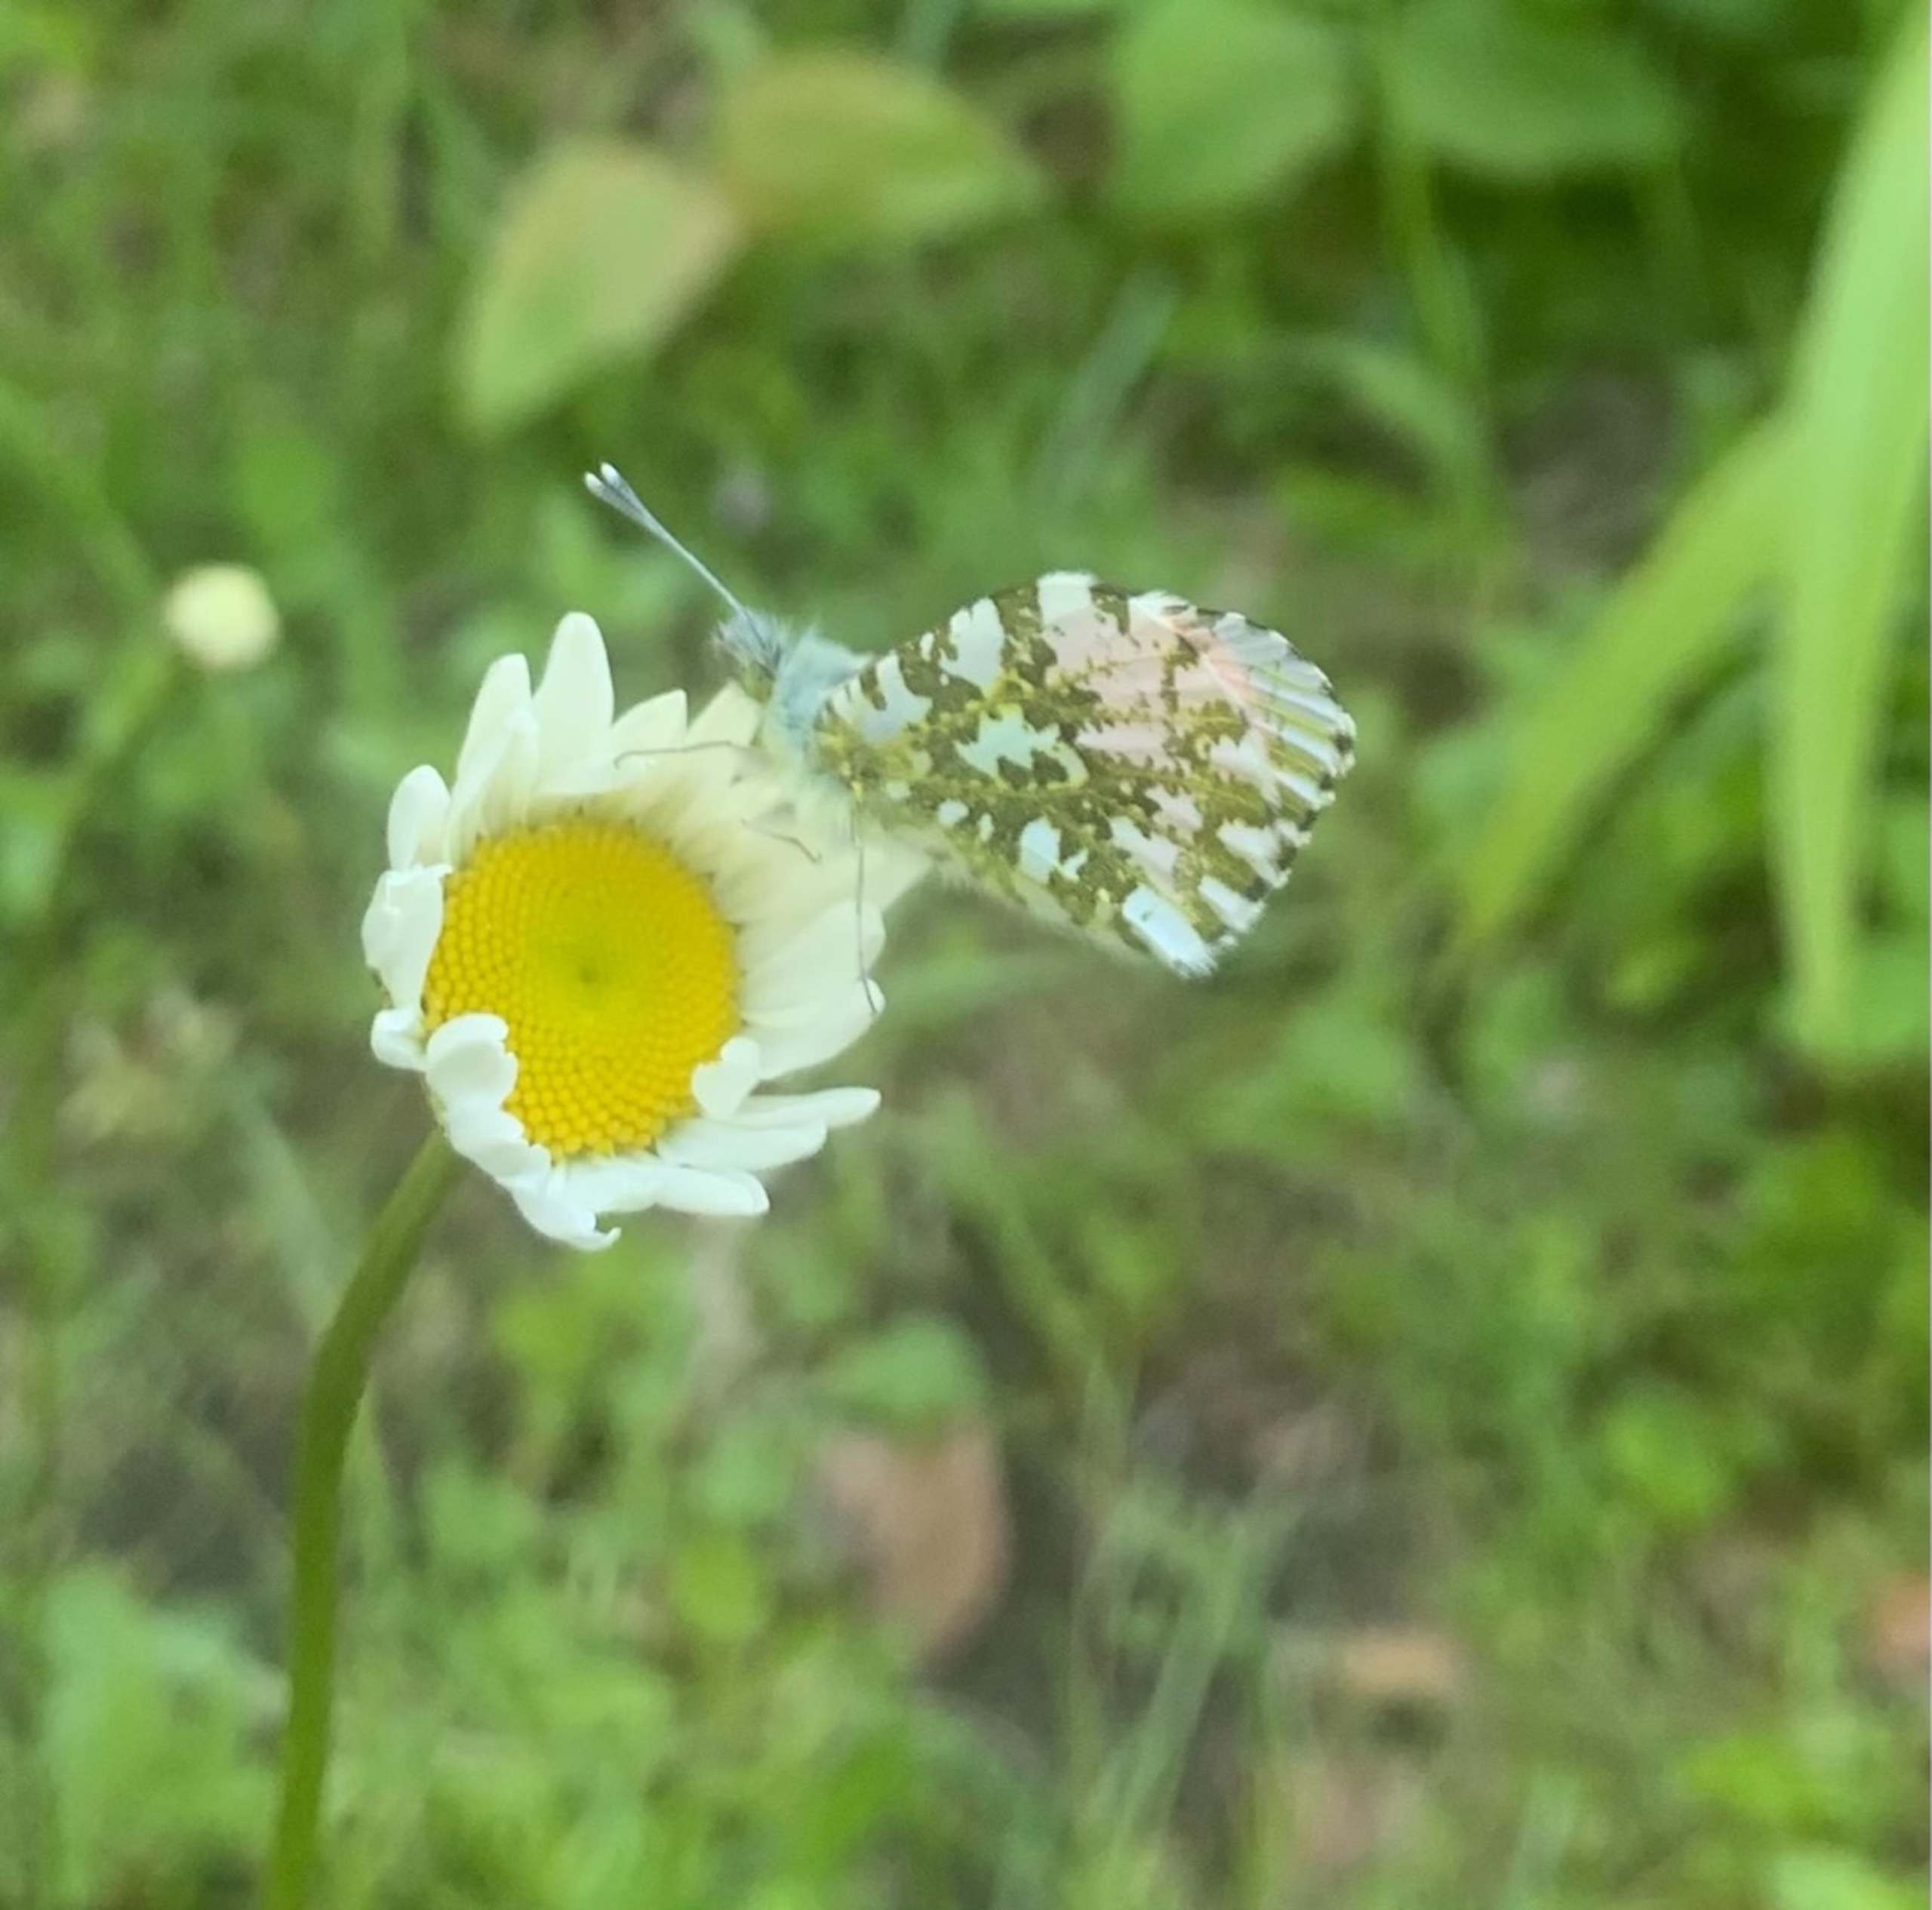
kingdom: Animalia
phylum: Arthropoda
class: Insecta
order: Lepidoptera
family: Pieridae
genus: Anthocharis
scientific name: Anthocharis cardamines
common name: Aurora
